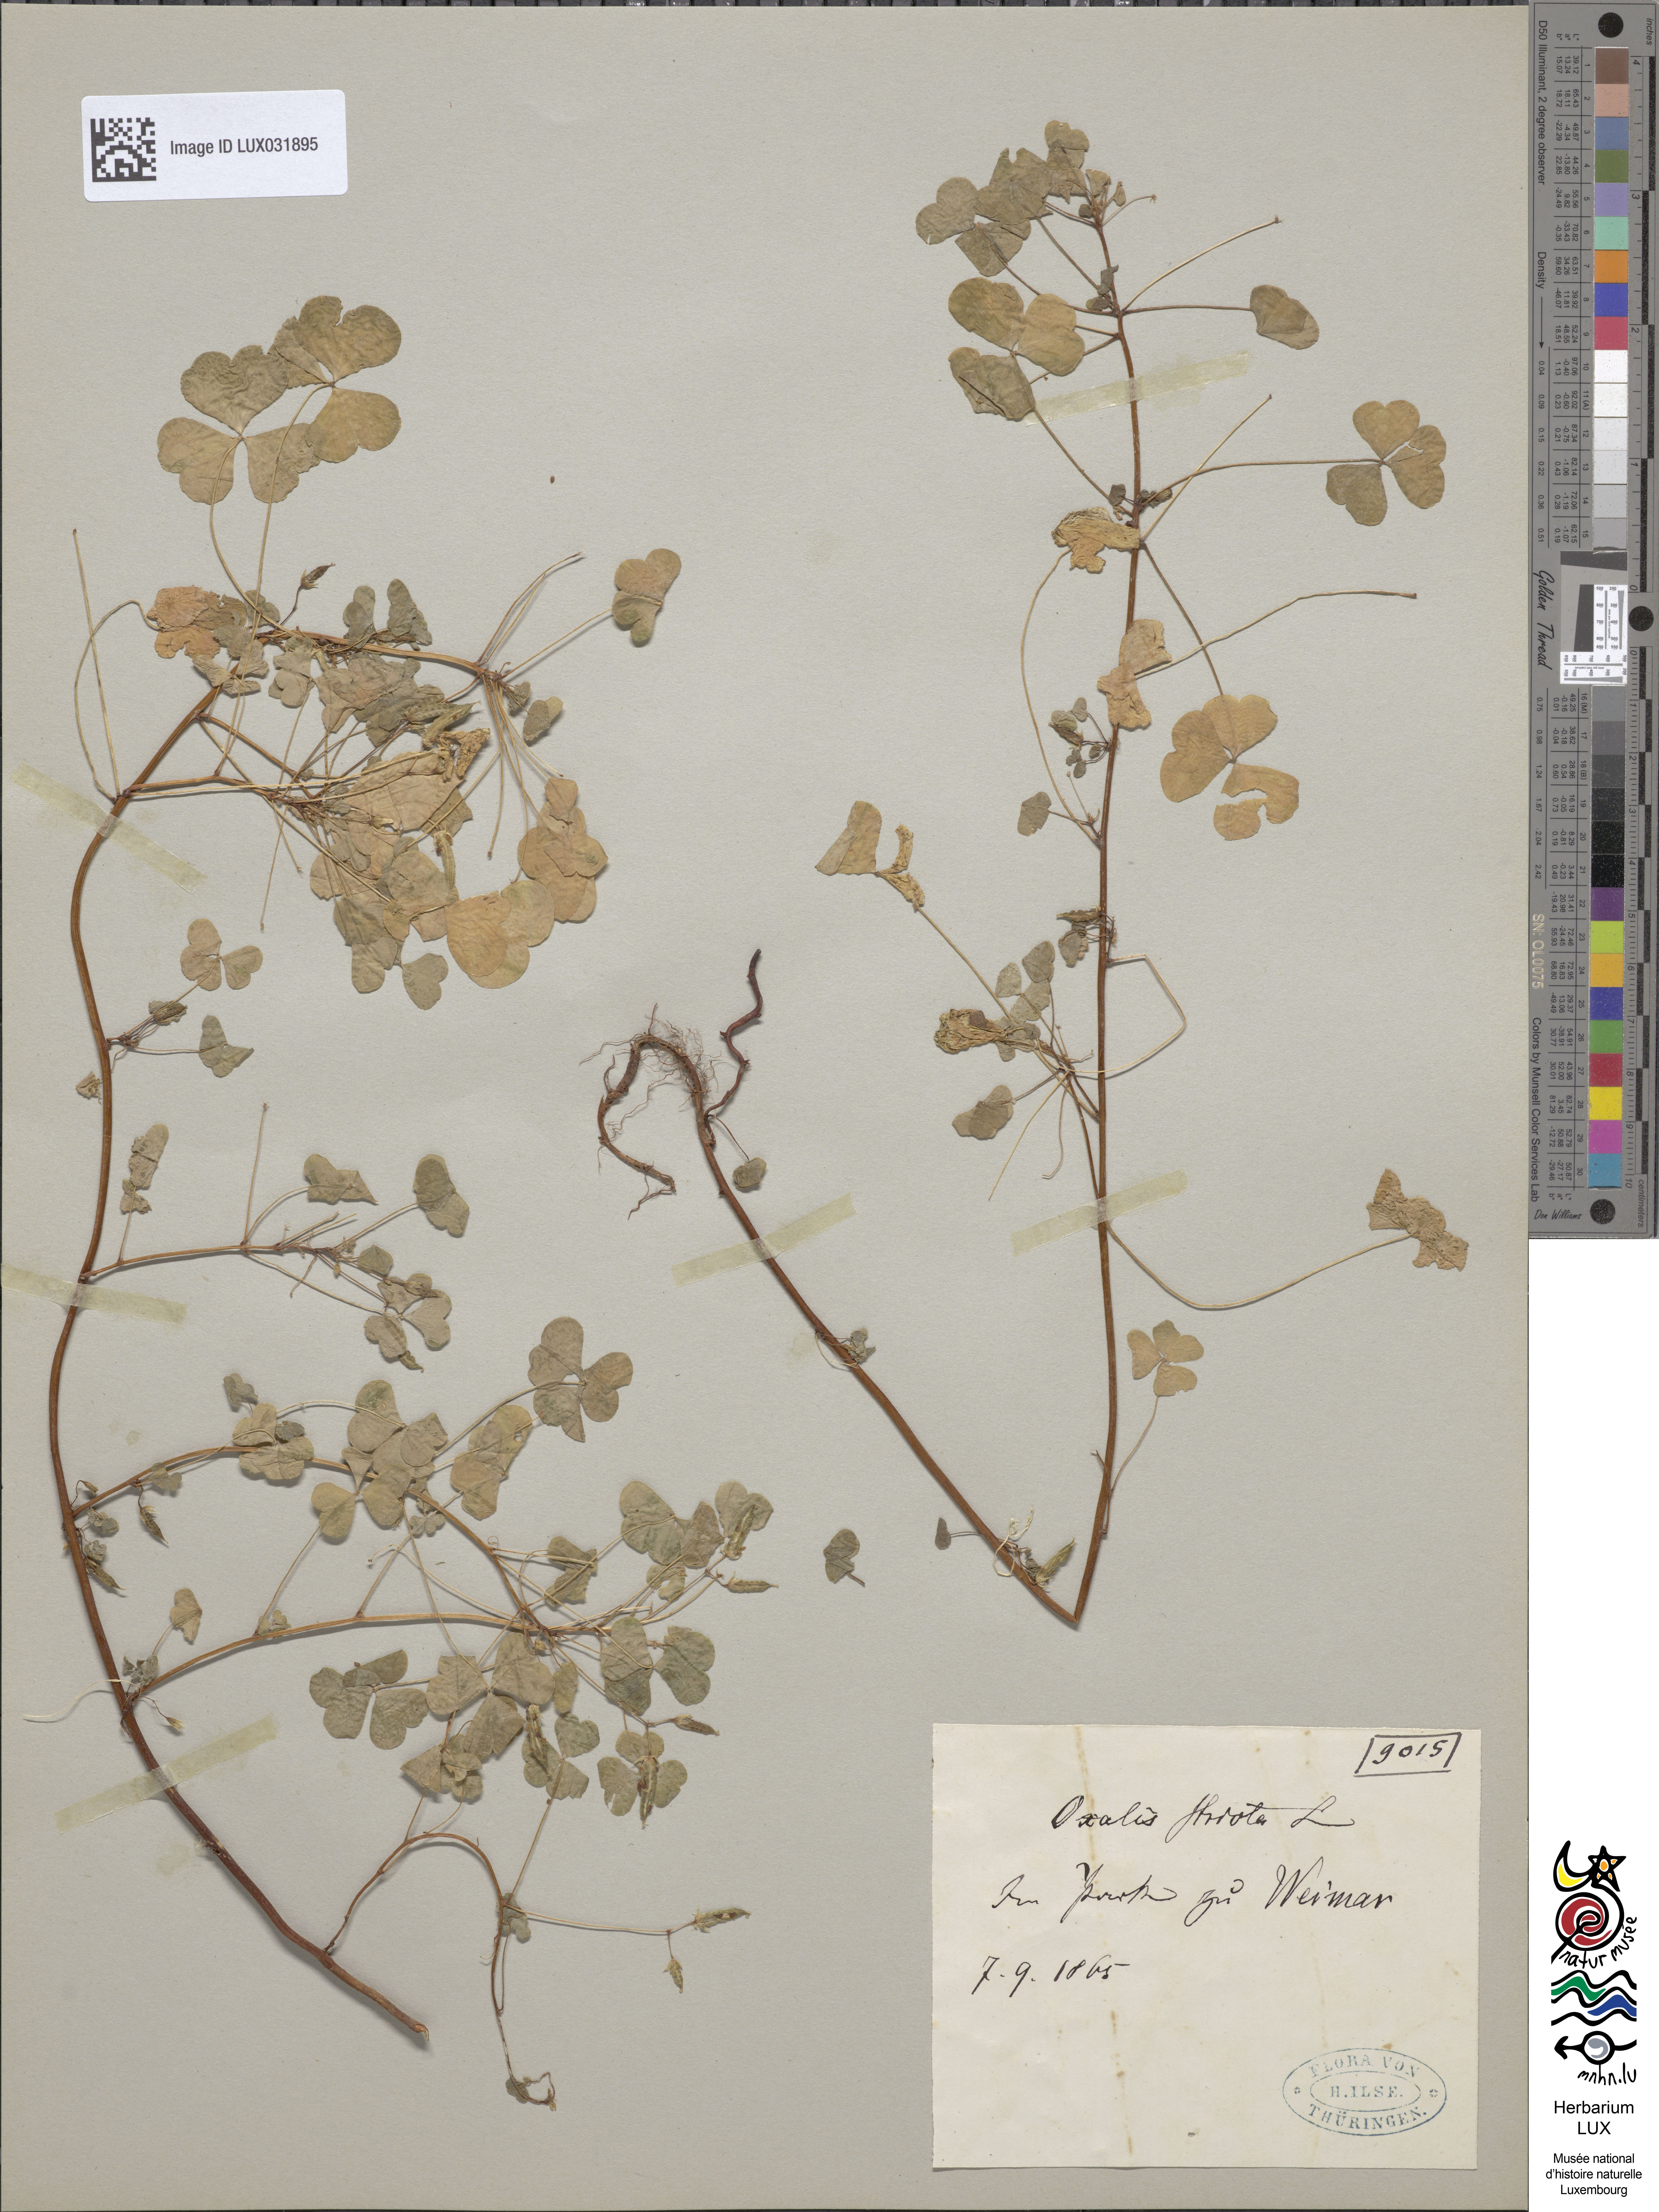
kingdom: Plantae
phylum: Tracheophyta
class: Magnoliopsida
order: Oxalidales
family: Oxalidaceae
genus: Oxalis
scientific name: Oxalis stricta
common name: Upright yellow-sorrel
